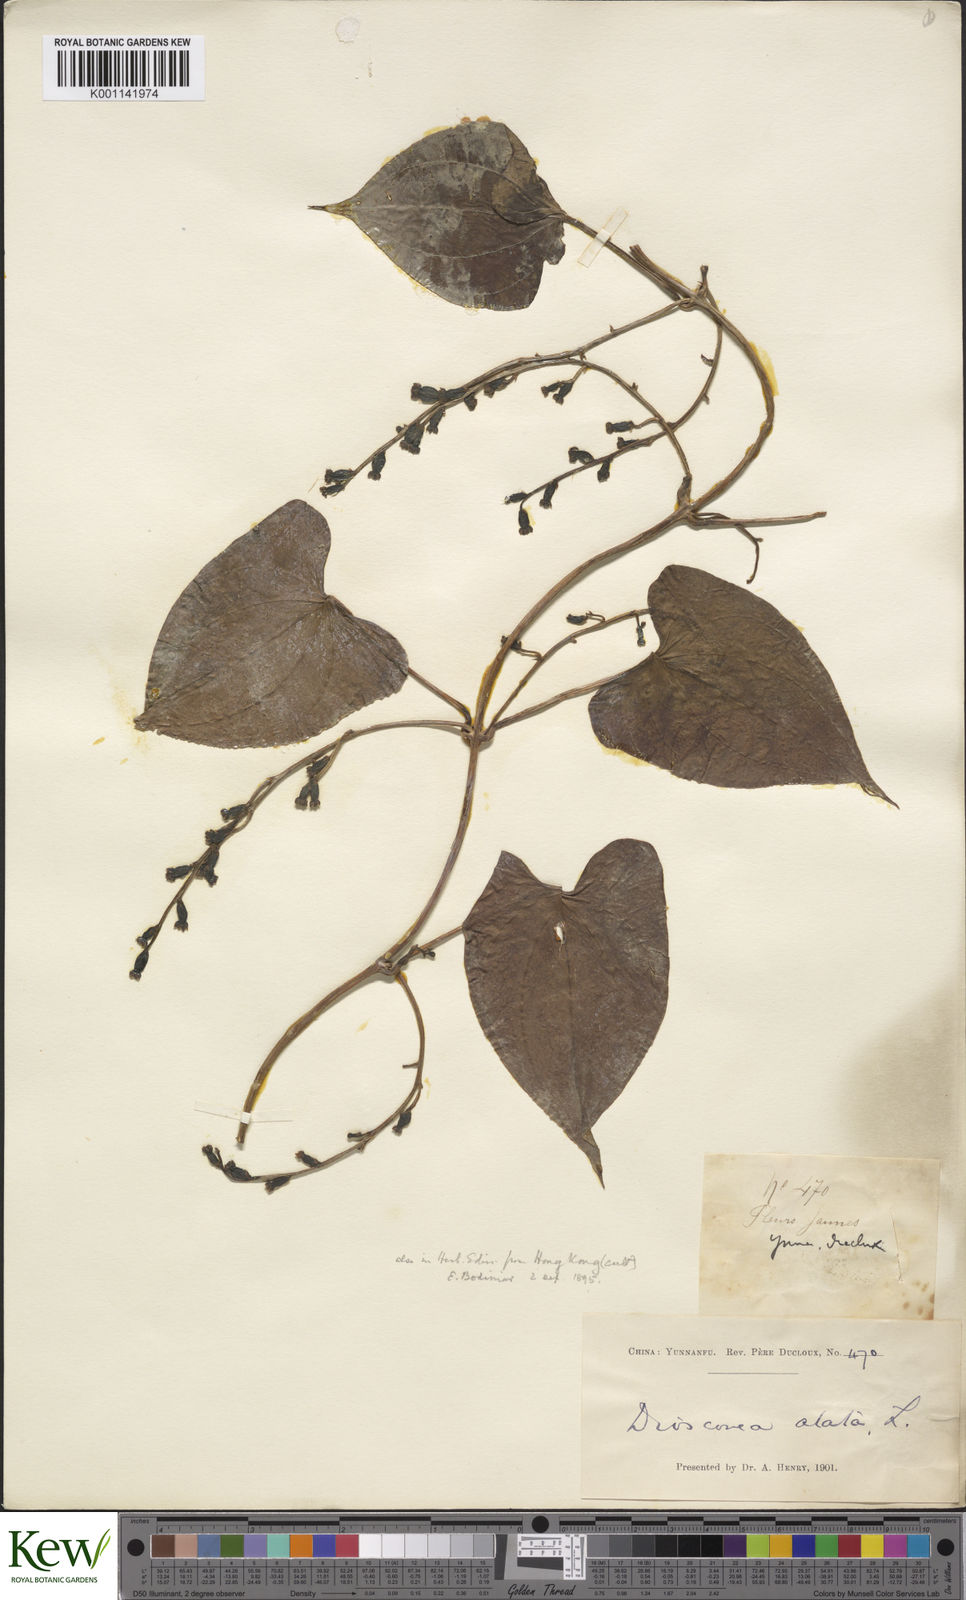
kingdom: Plantae
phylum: Tracheophyta
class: Liliopsida
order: Dioscoreales
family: Dioscoreaceae
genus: Dioscorea
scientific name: Dioscorea alata
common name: Water yam
